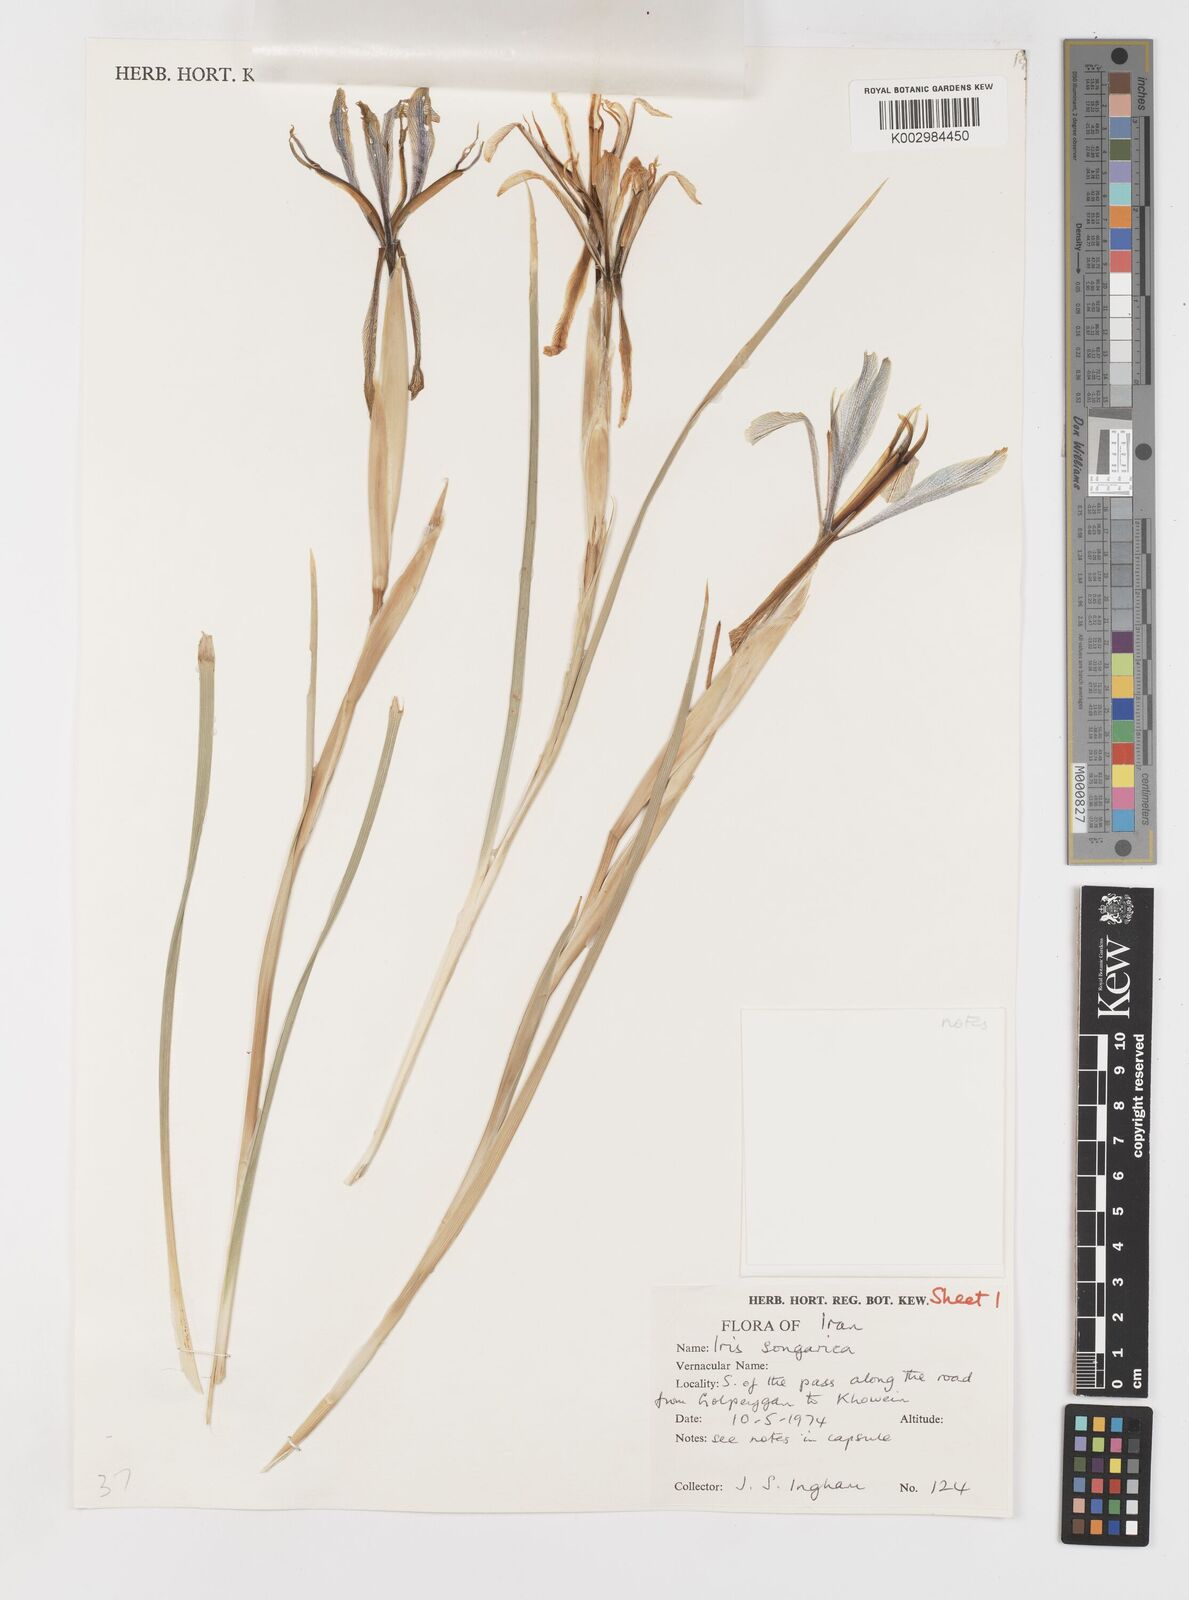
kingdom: Plantae
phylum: Tracheophyta
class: Liliopsida
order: Asparagales
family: Iridaceae
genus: Iris
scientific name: Iris songarica
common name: Songar iris
